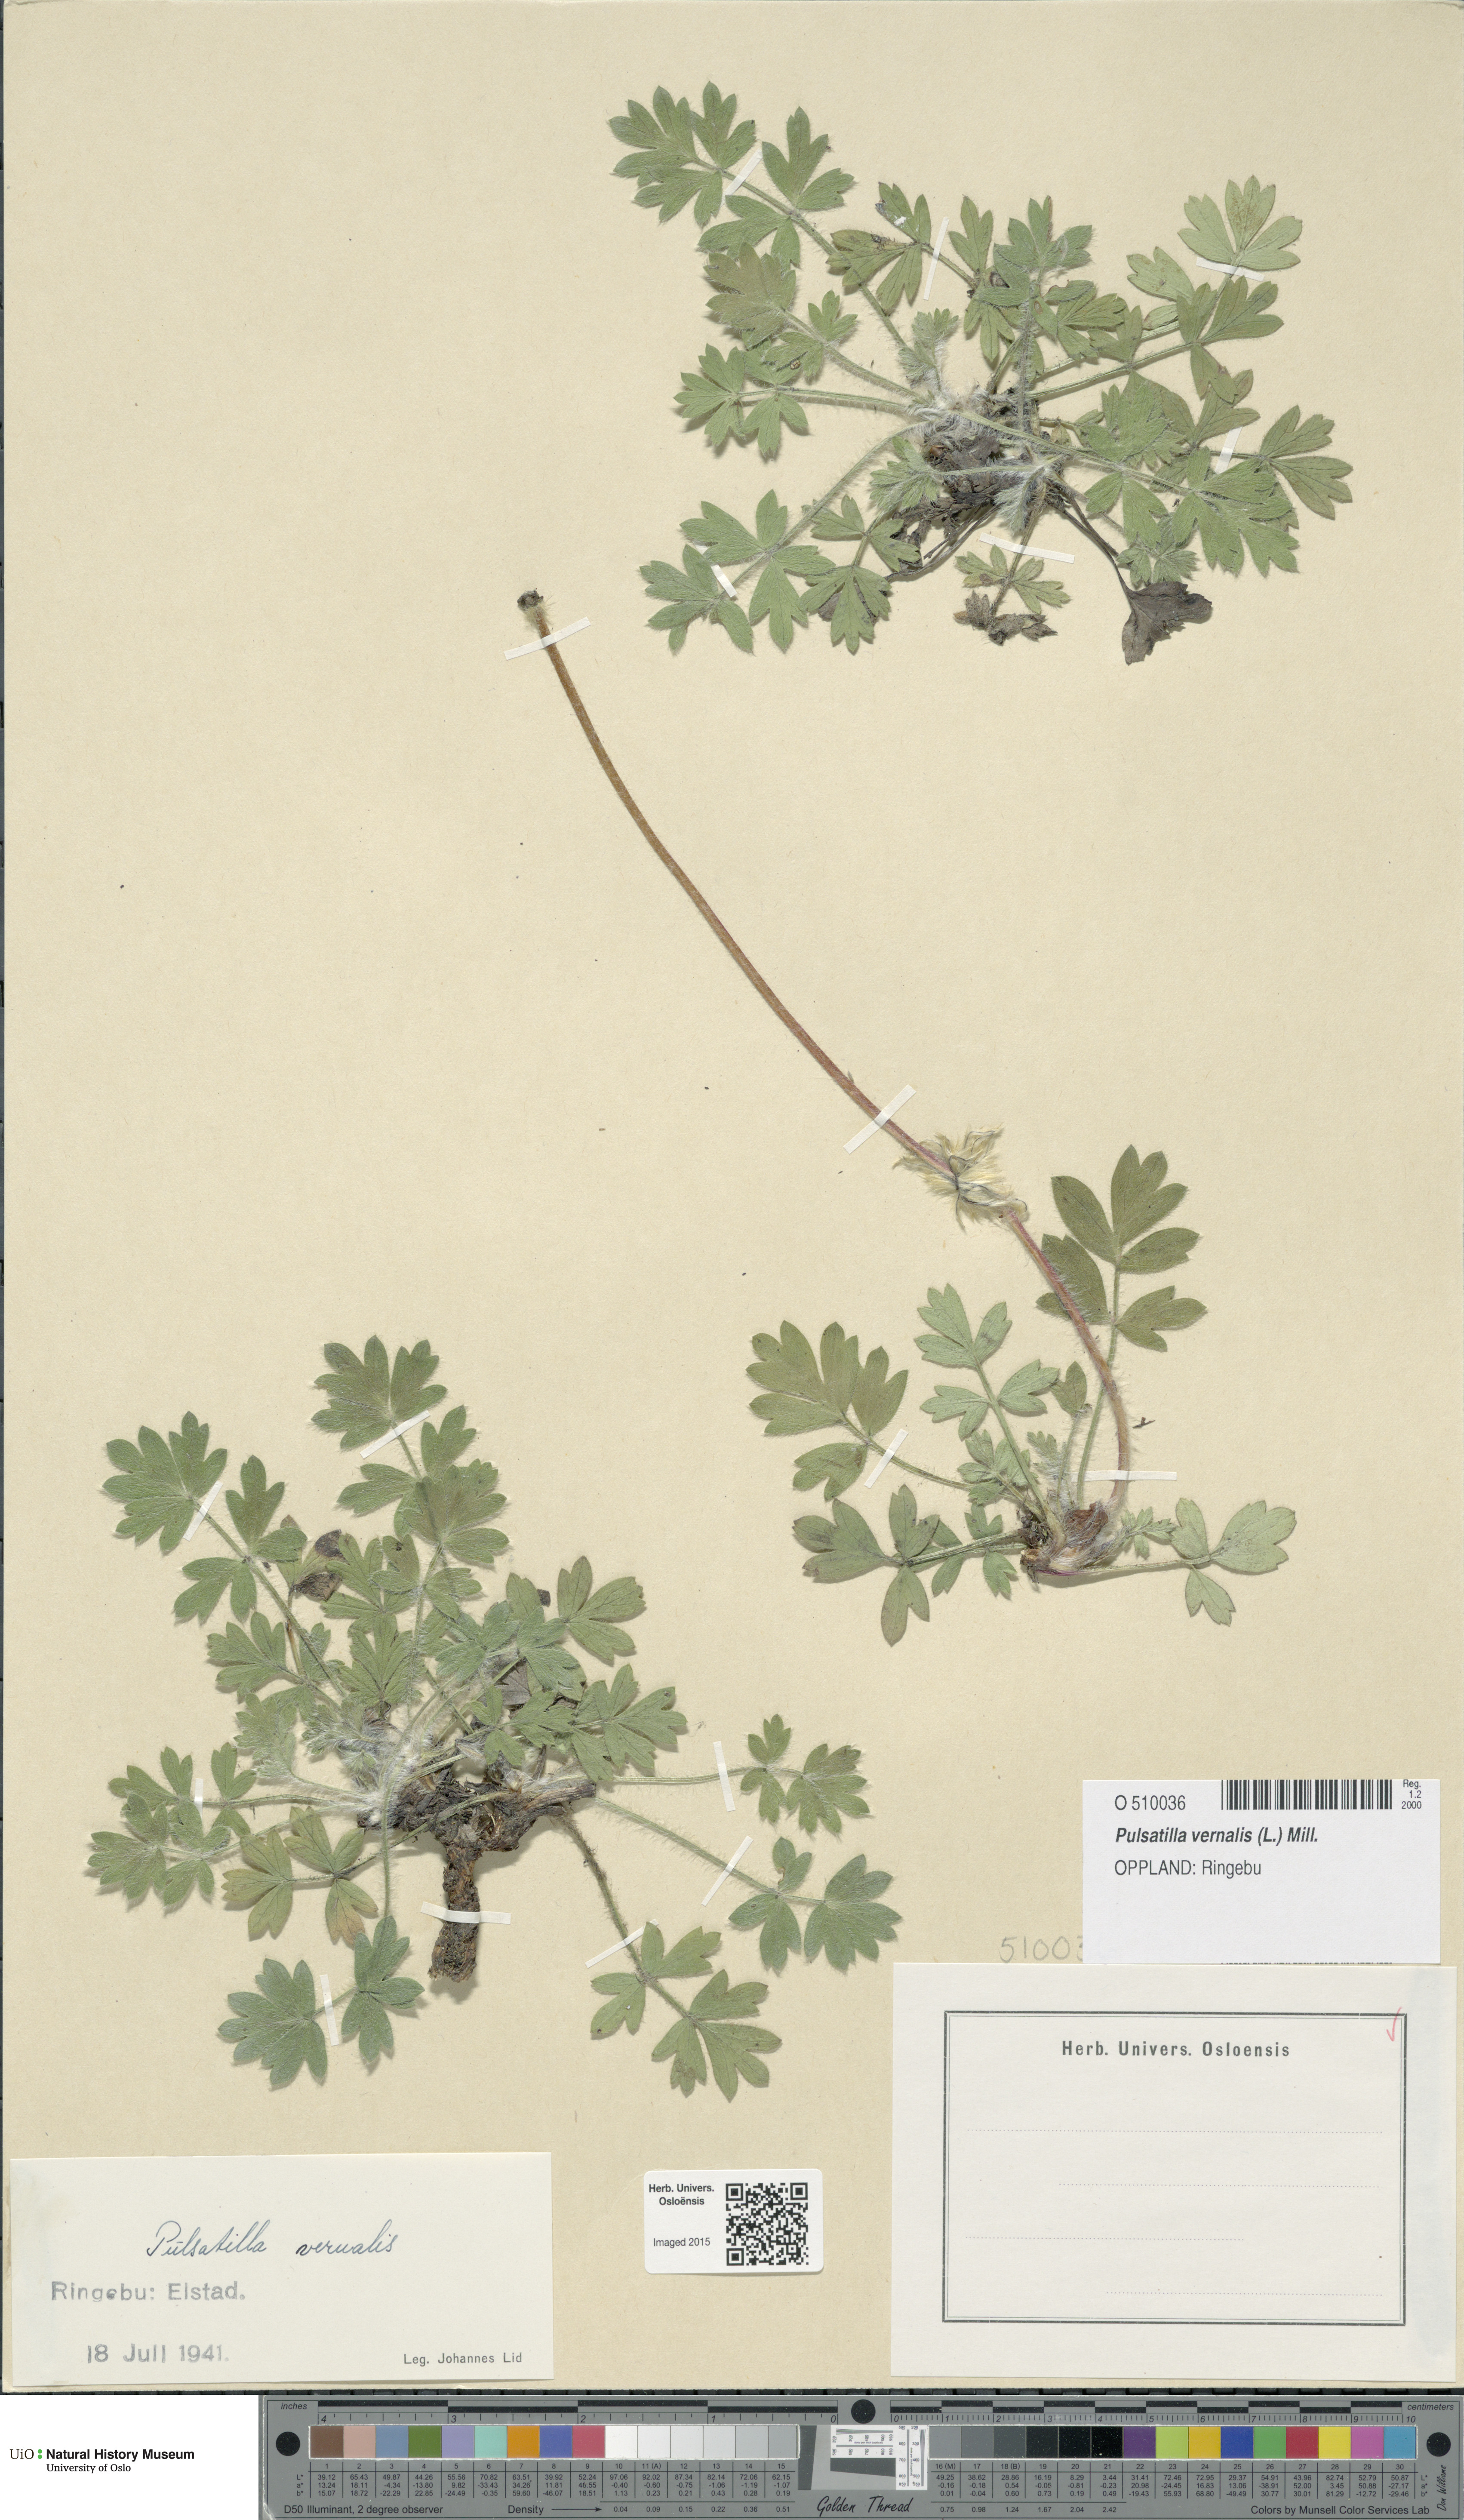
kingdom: Plantae
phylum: Tracheophyta
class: Magnoliopsida
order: Ranunculales
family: Ranunculaceae
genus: Pulsatilla
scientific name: Pulsatilla vernalis
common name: Spring pasque flower
